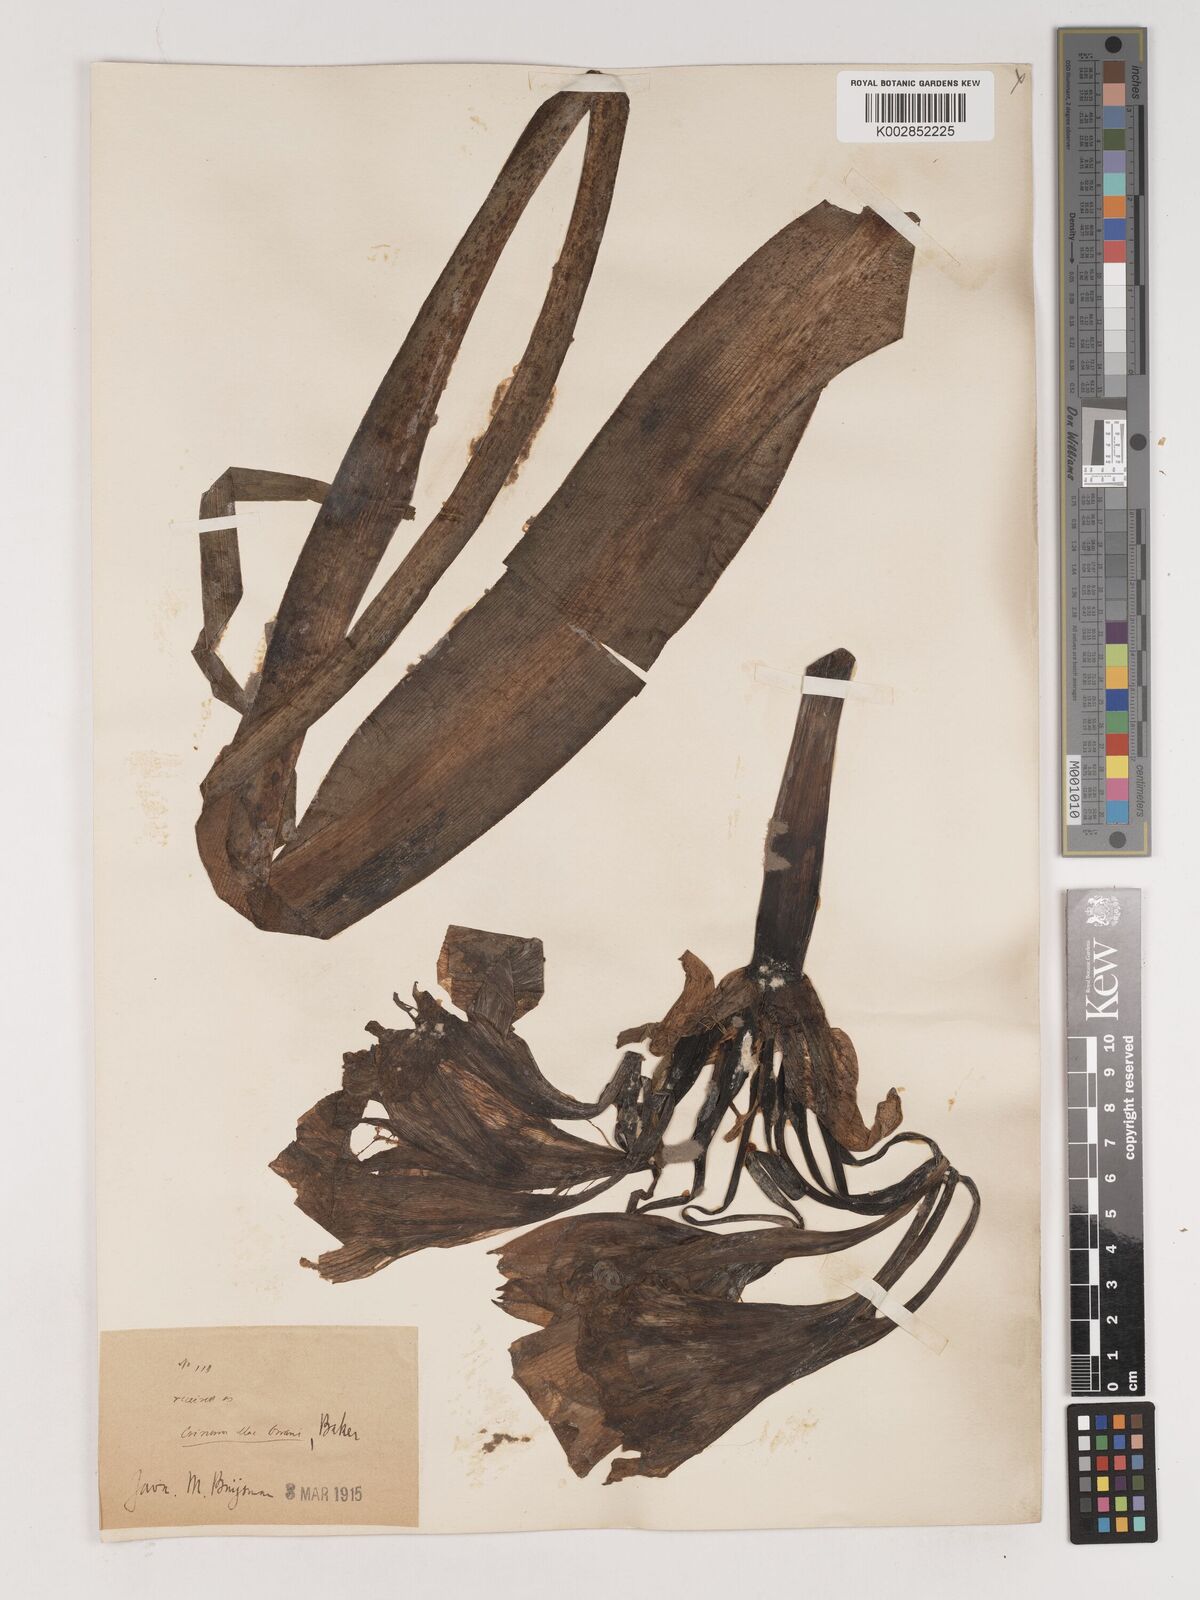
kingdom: Plantae
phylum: Tracheophyta
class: Liliopsida
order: Asparagales
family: Amaryllidaceae
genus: Crinum
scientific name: Crinum macowanii
